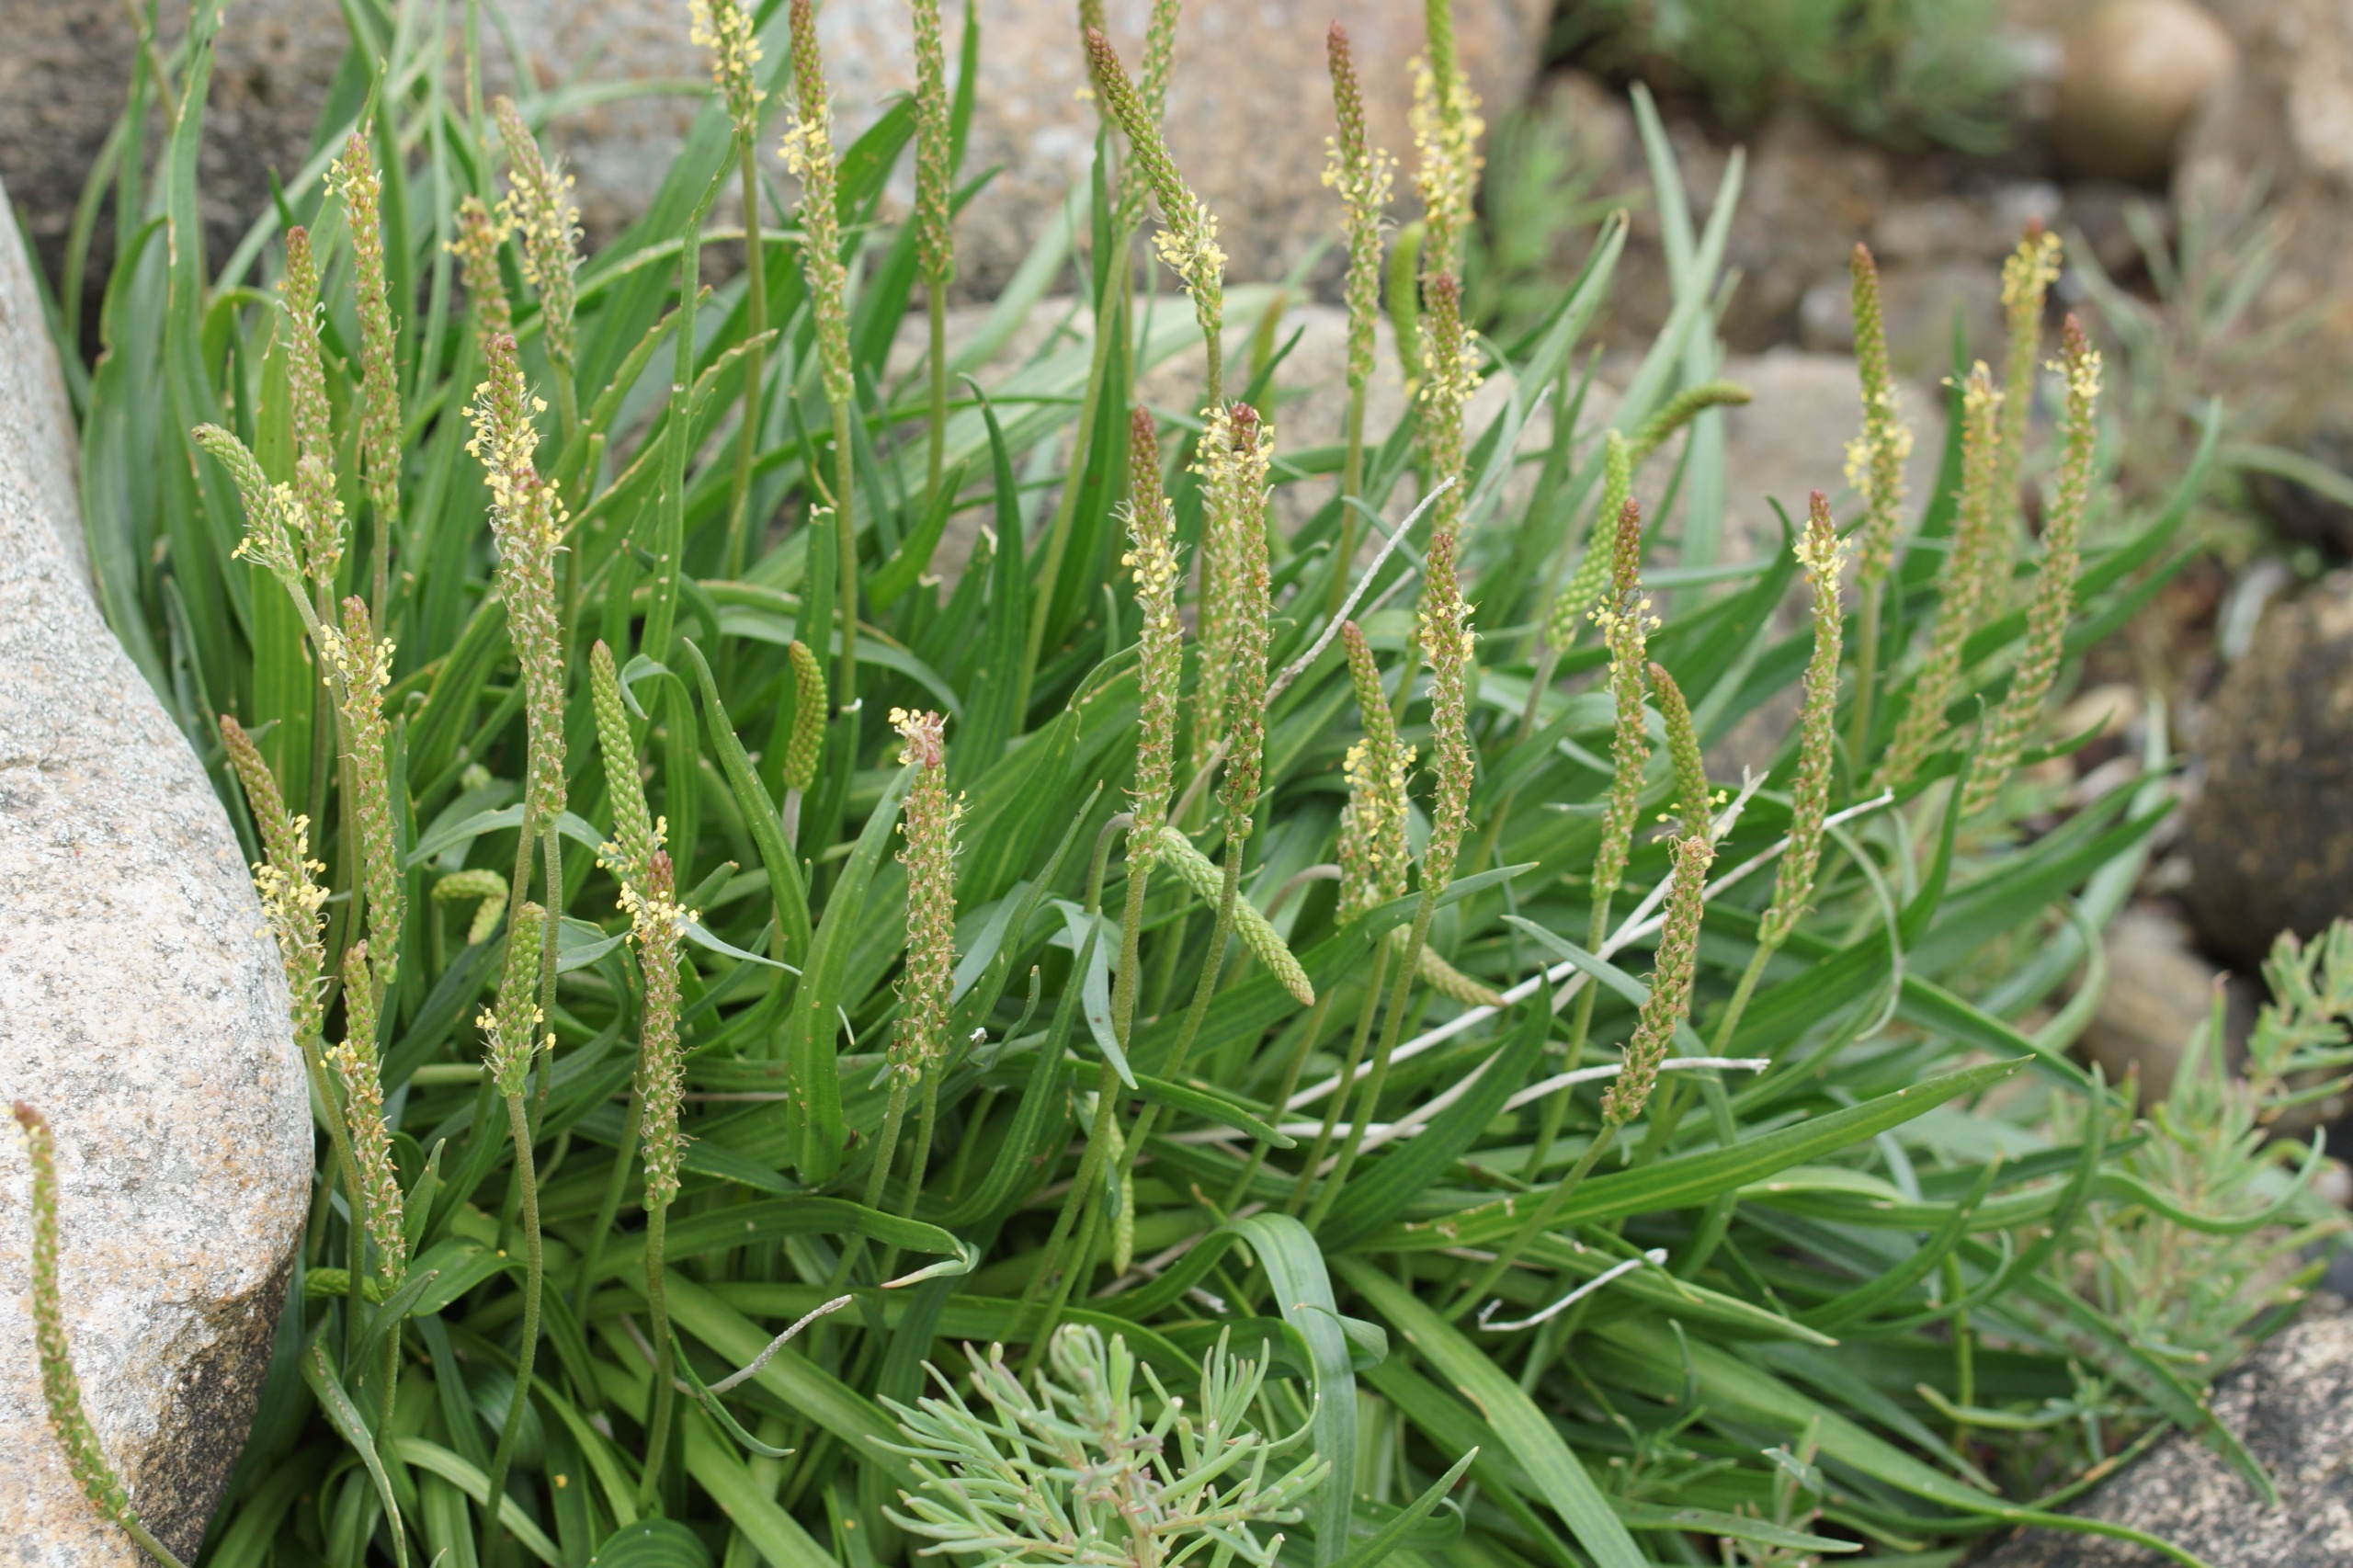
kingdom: Plantae
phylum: Tracheophyta
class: Magnoliopsida
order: Lamiales
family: Plantaginaceae
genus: Plantago
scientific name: Plantago maritima
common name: Strand-vejbred
